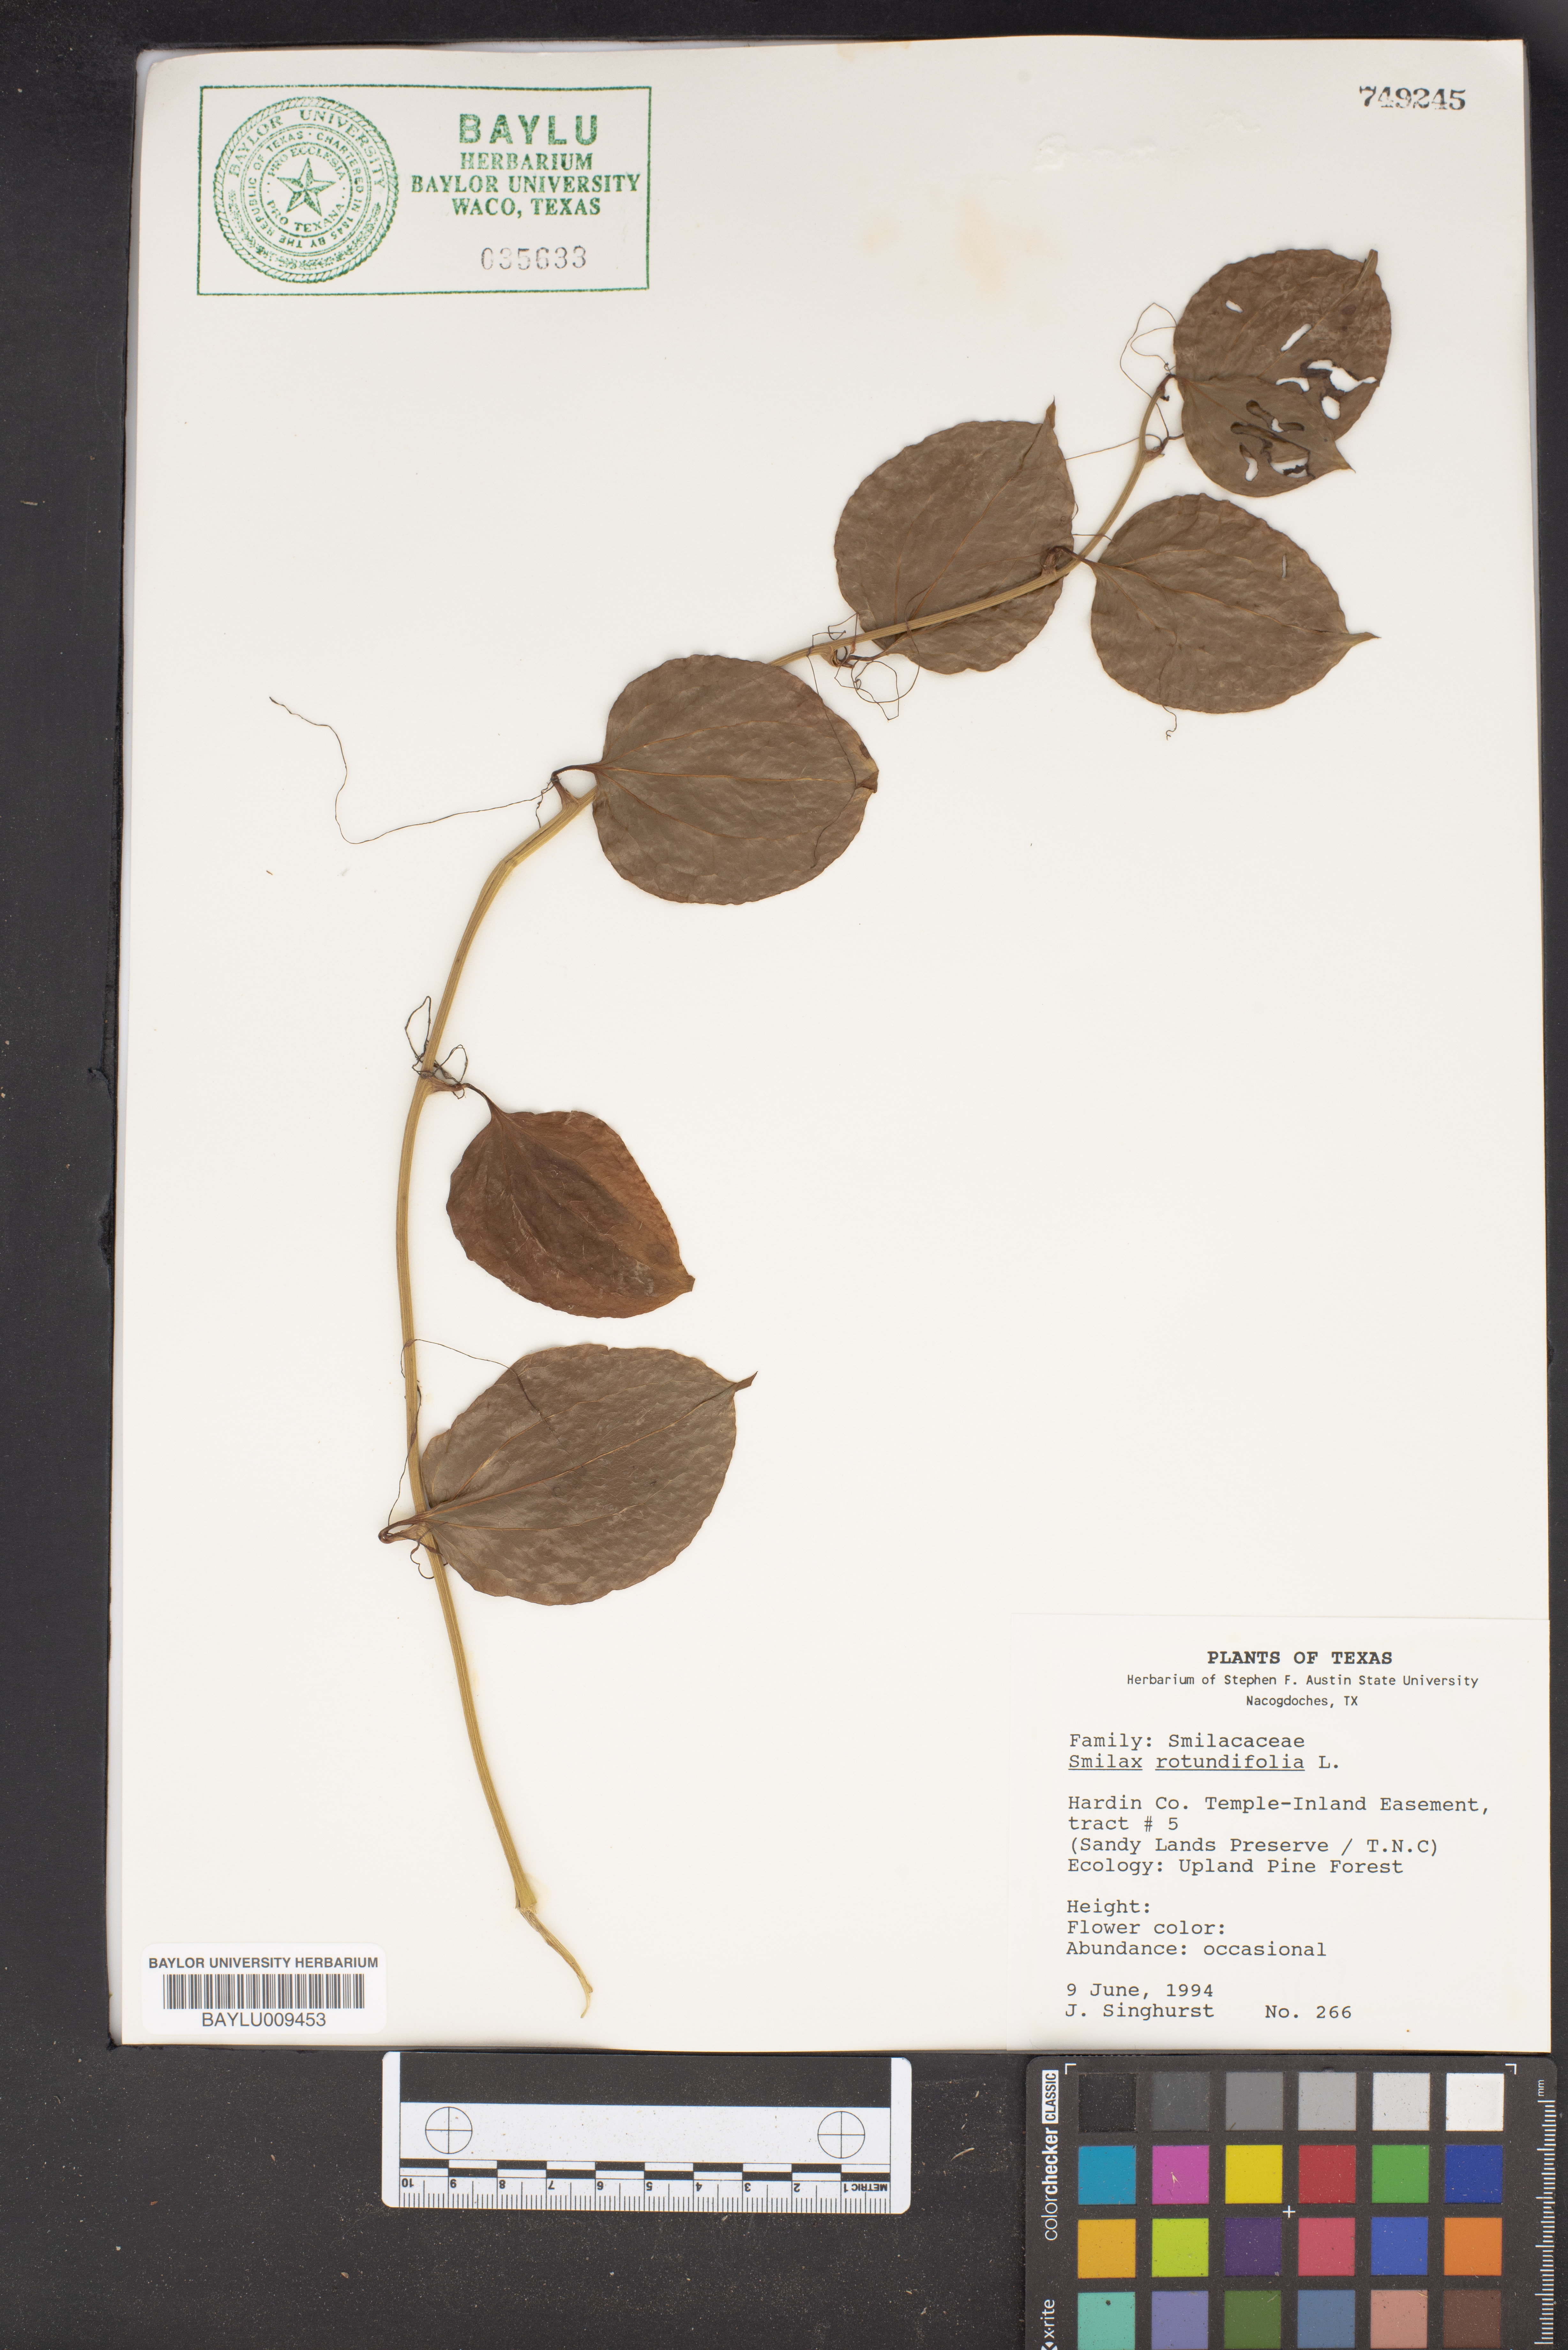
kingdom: Plantae
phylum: Tracheophyta
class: Liliopsida
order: Liliales
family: Smilacaceae
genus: Smilax
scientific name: Smilax rotundifolia
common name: Bullbriar
